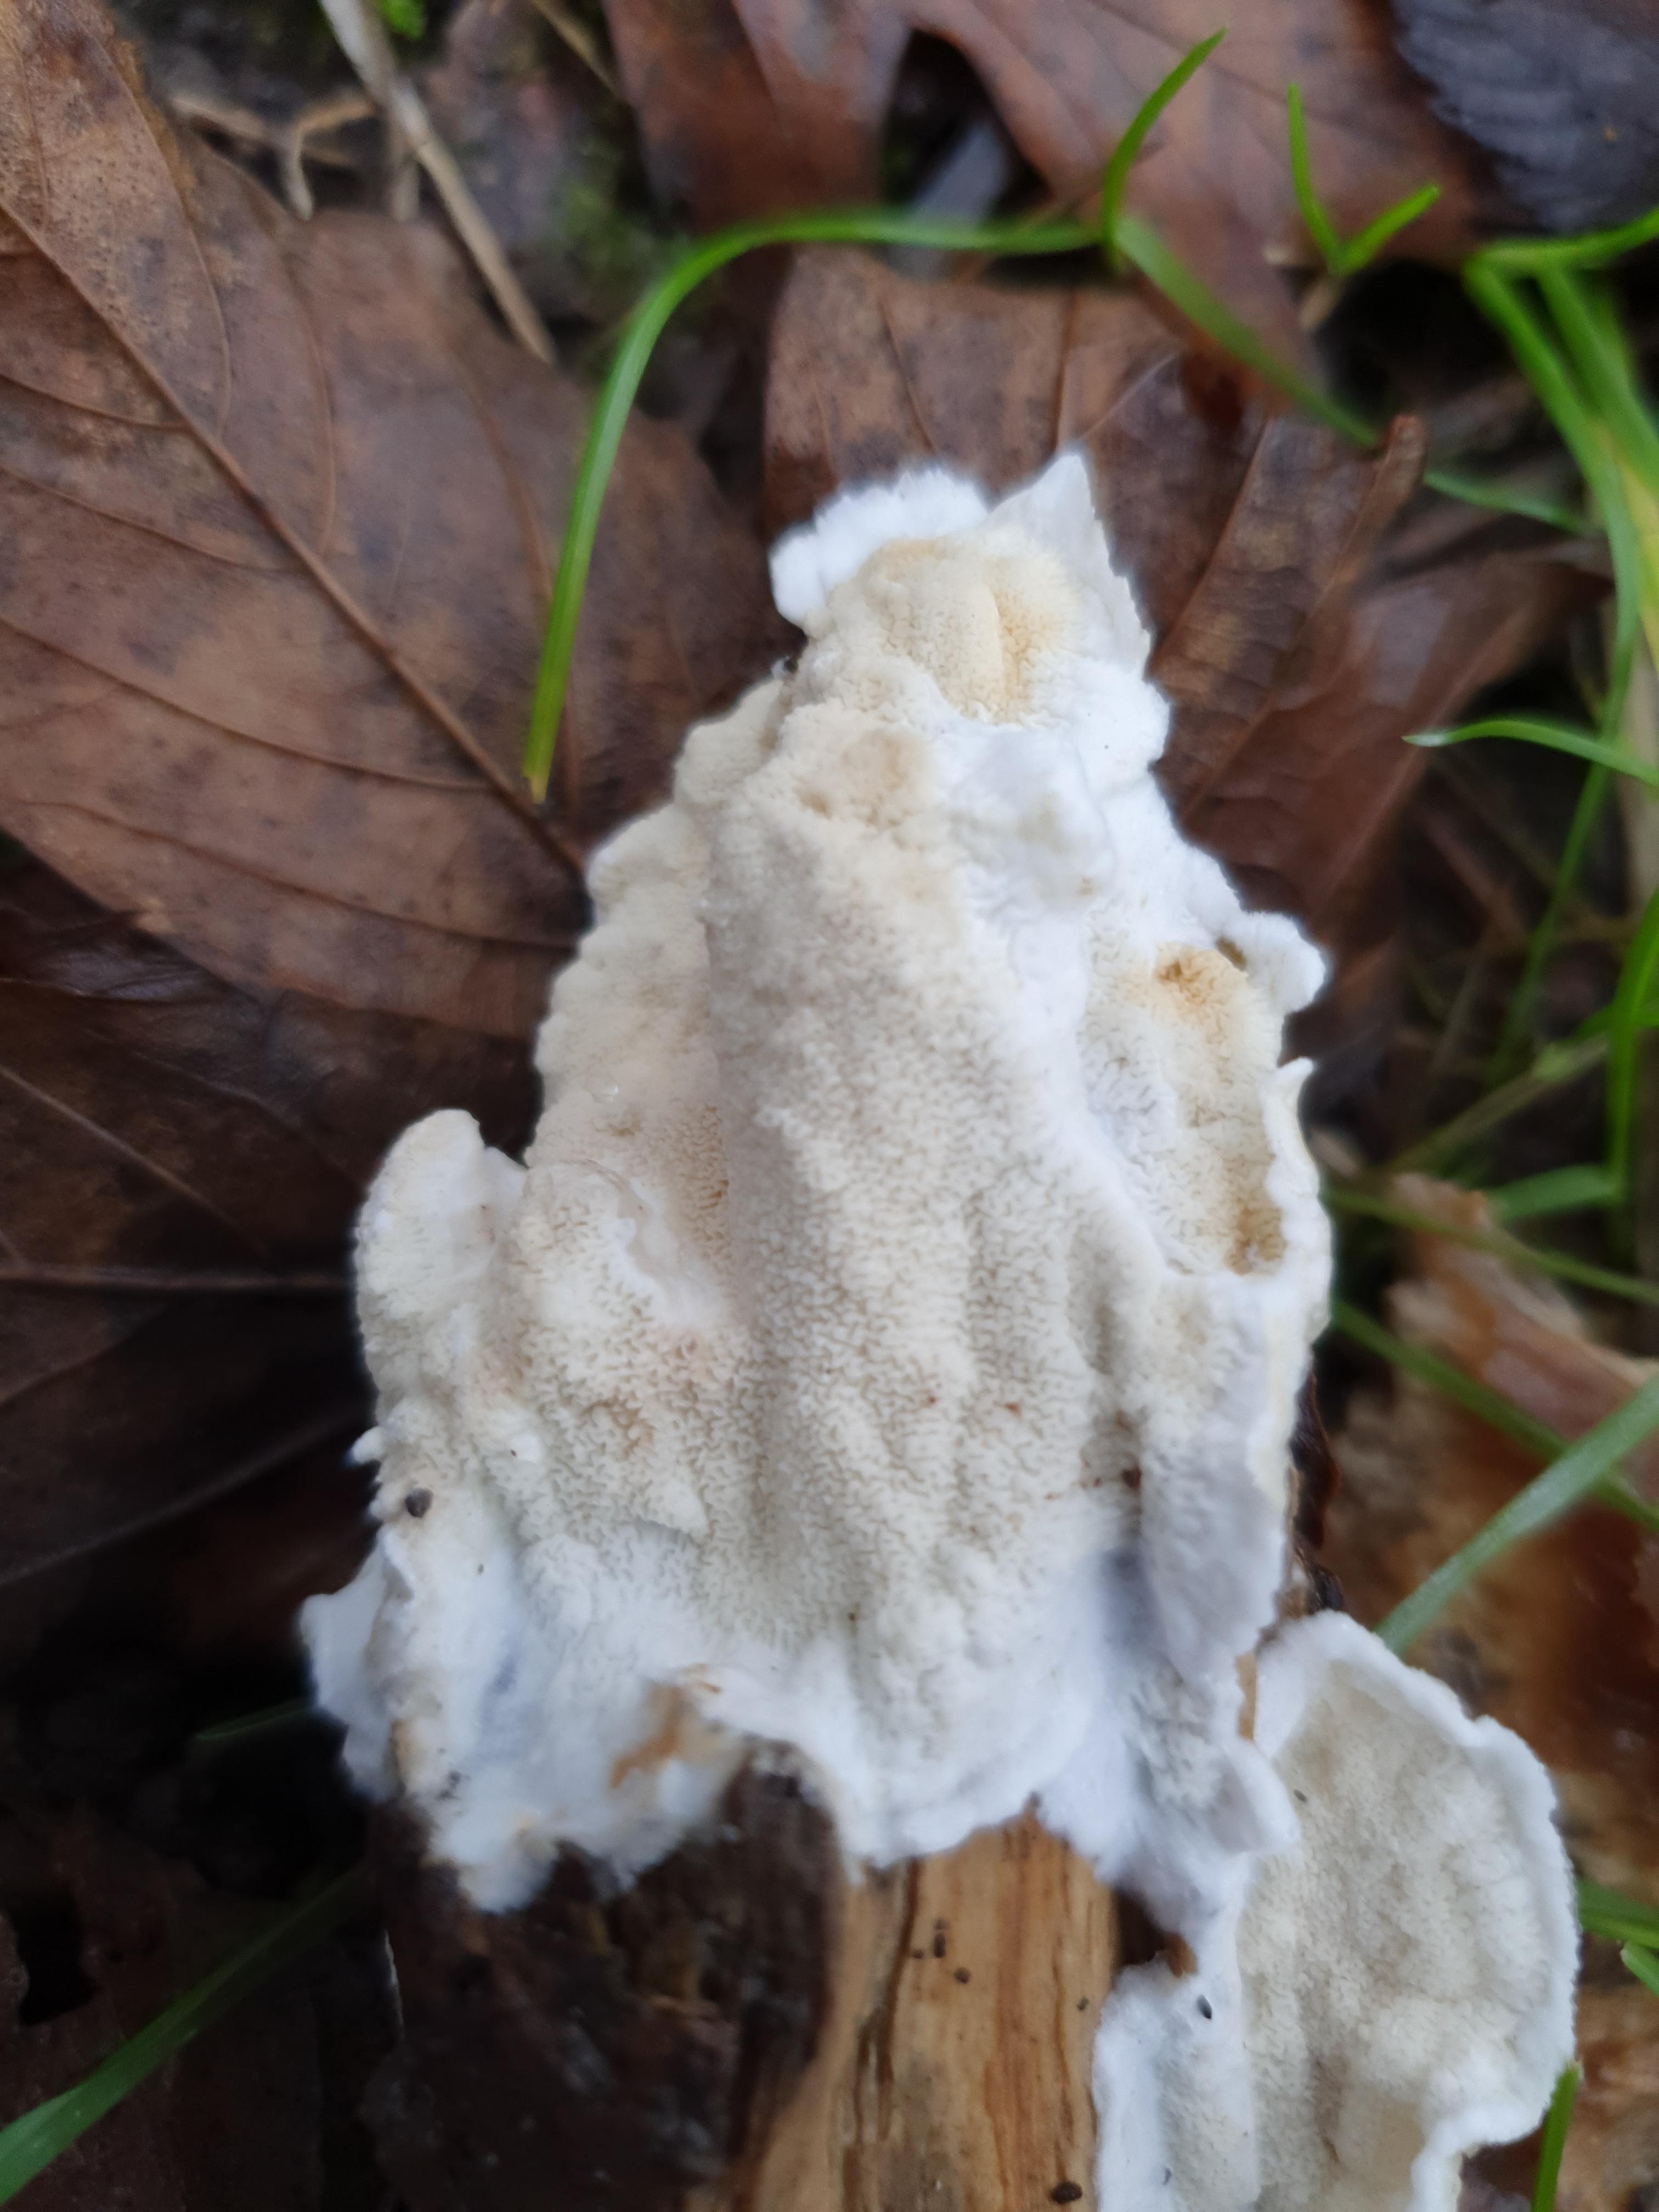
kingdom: Fungi
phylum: Basidiomycota
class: Agaricomycetes
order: Polyporales
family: Irpicaceae
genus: Byssomerulius
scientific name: Byssomerulius corium
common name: læder-åresvamp
